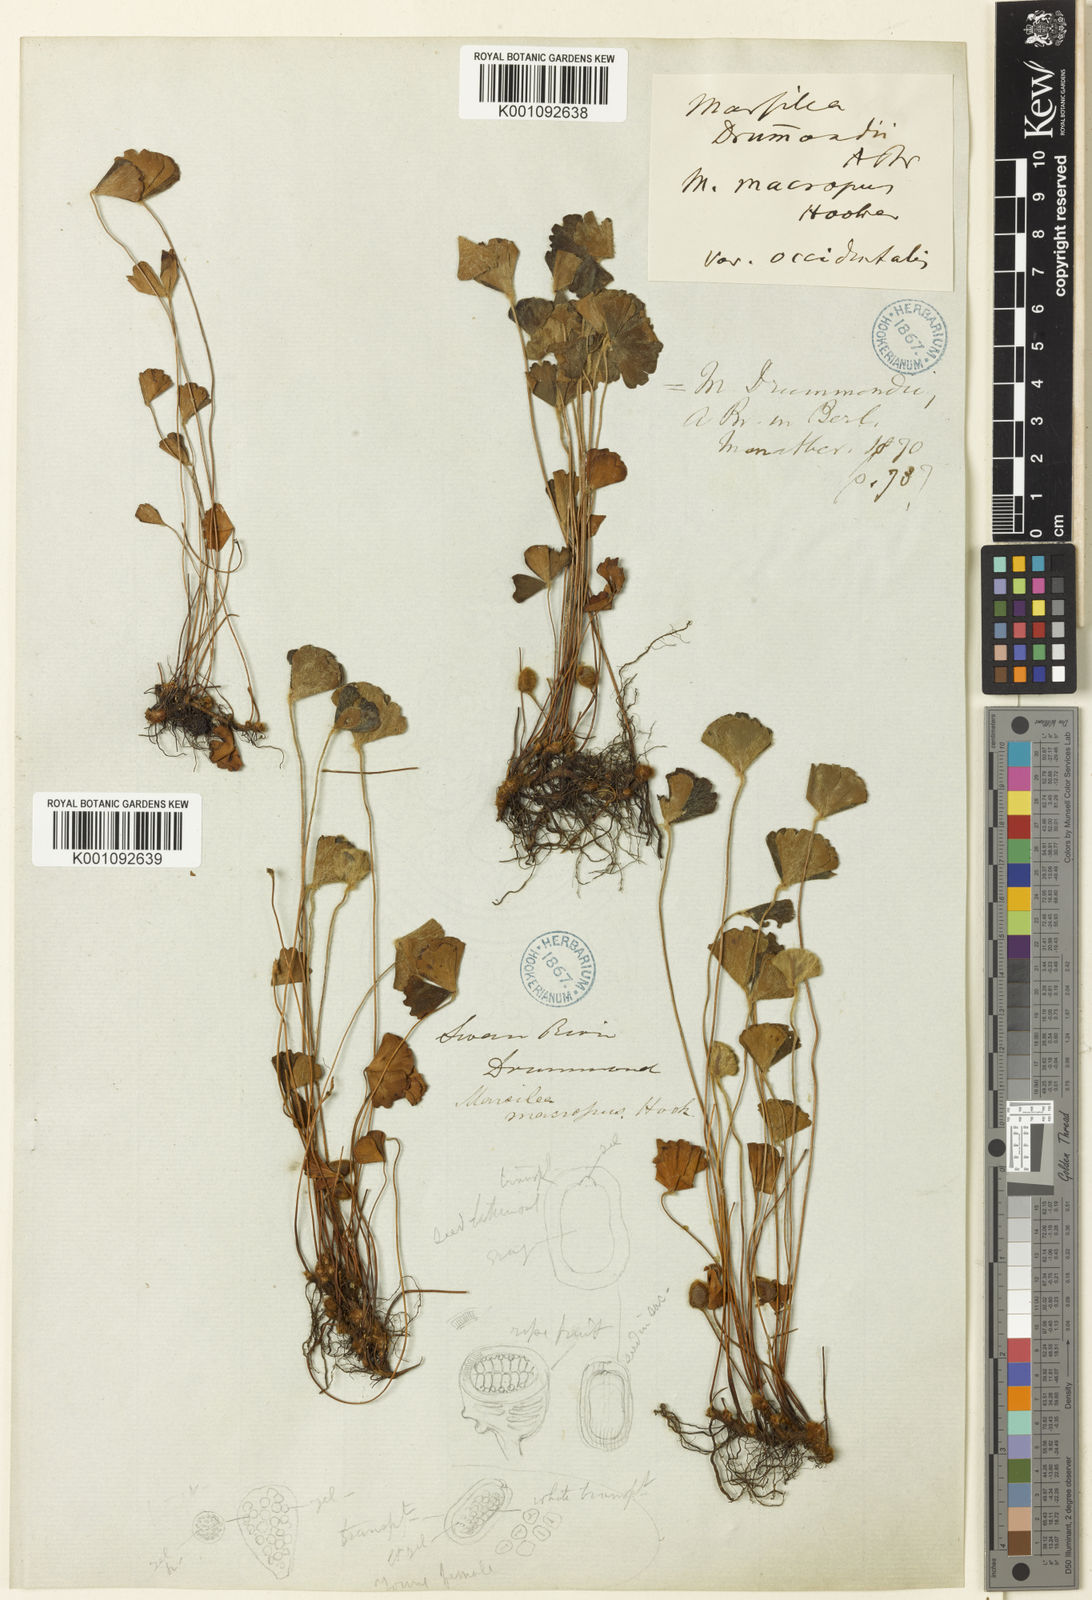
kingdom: Plantae
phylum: Tracheophyta
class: Polypodiopsida
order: Salviniales
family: Marsileaceae
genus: Marsilea
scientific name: Marsilea drummondii
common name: Nardoo
